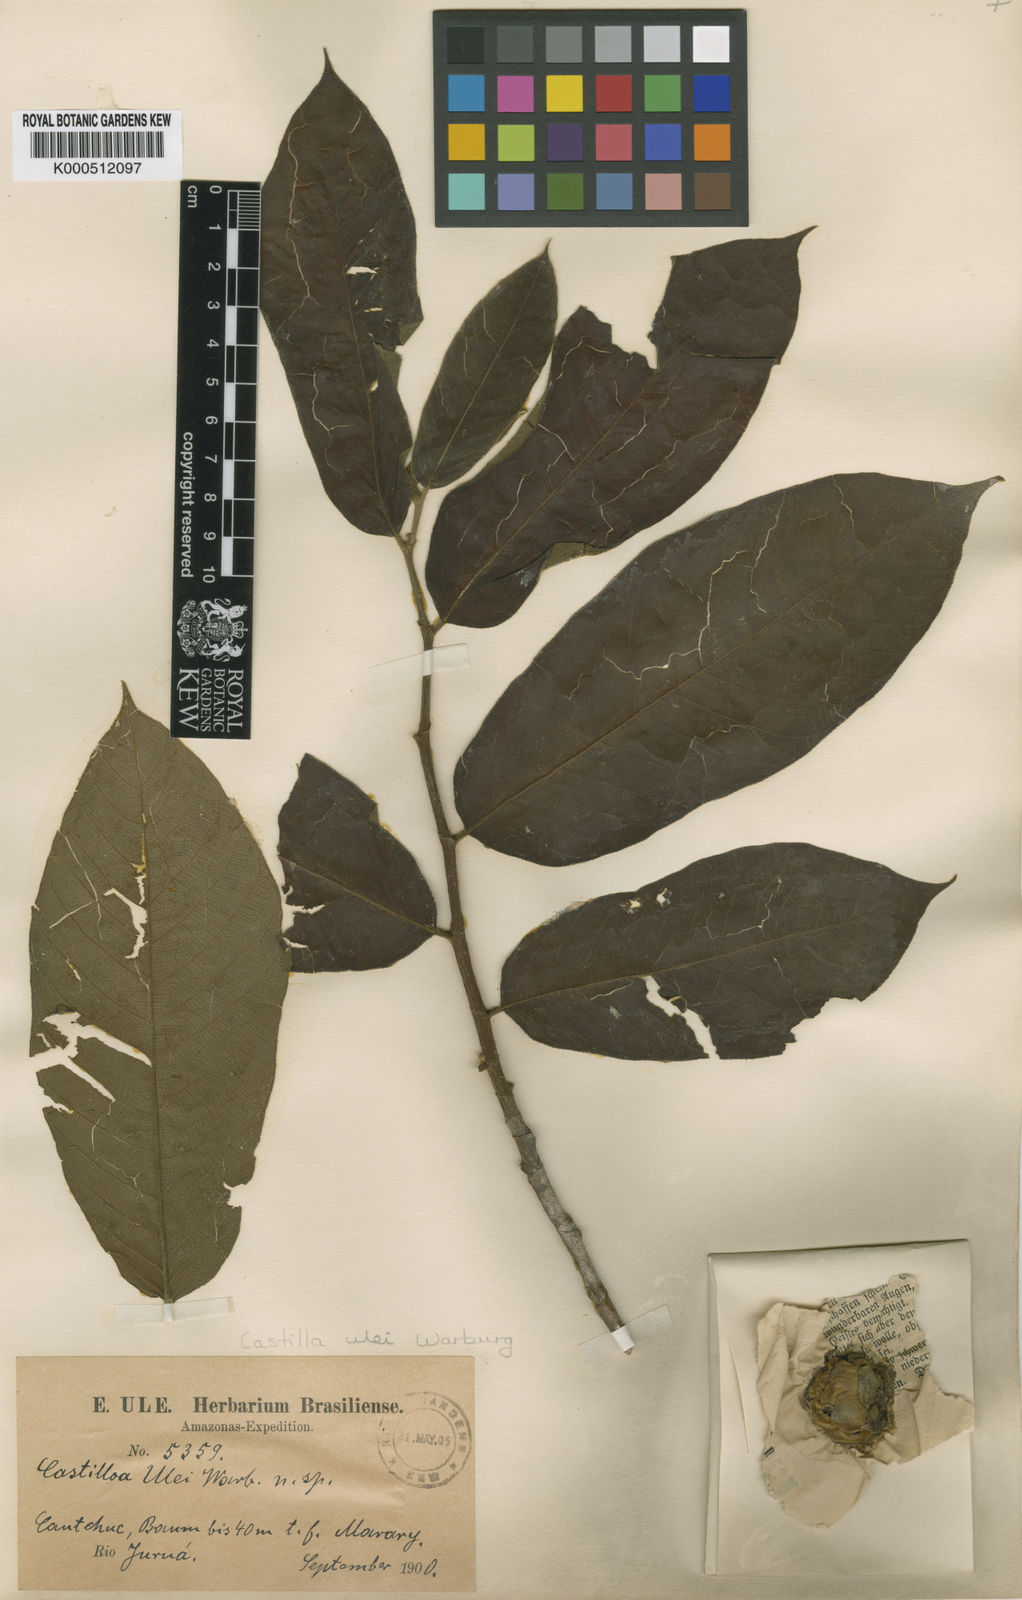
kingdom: Plantae
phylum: Tracheophyta
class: Magnoliopsida
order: Rosales
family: Moraceae
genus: Castilla
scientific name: Castilla ulei
